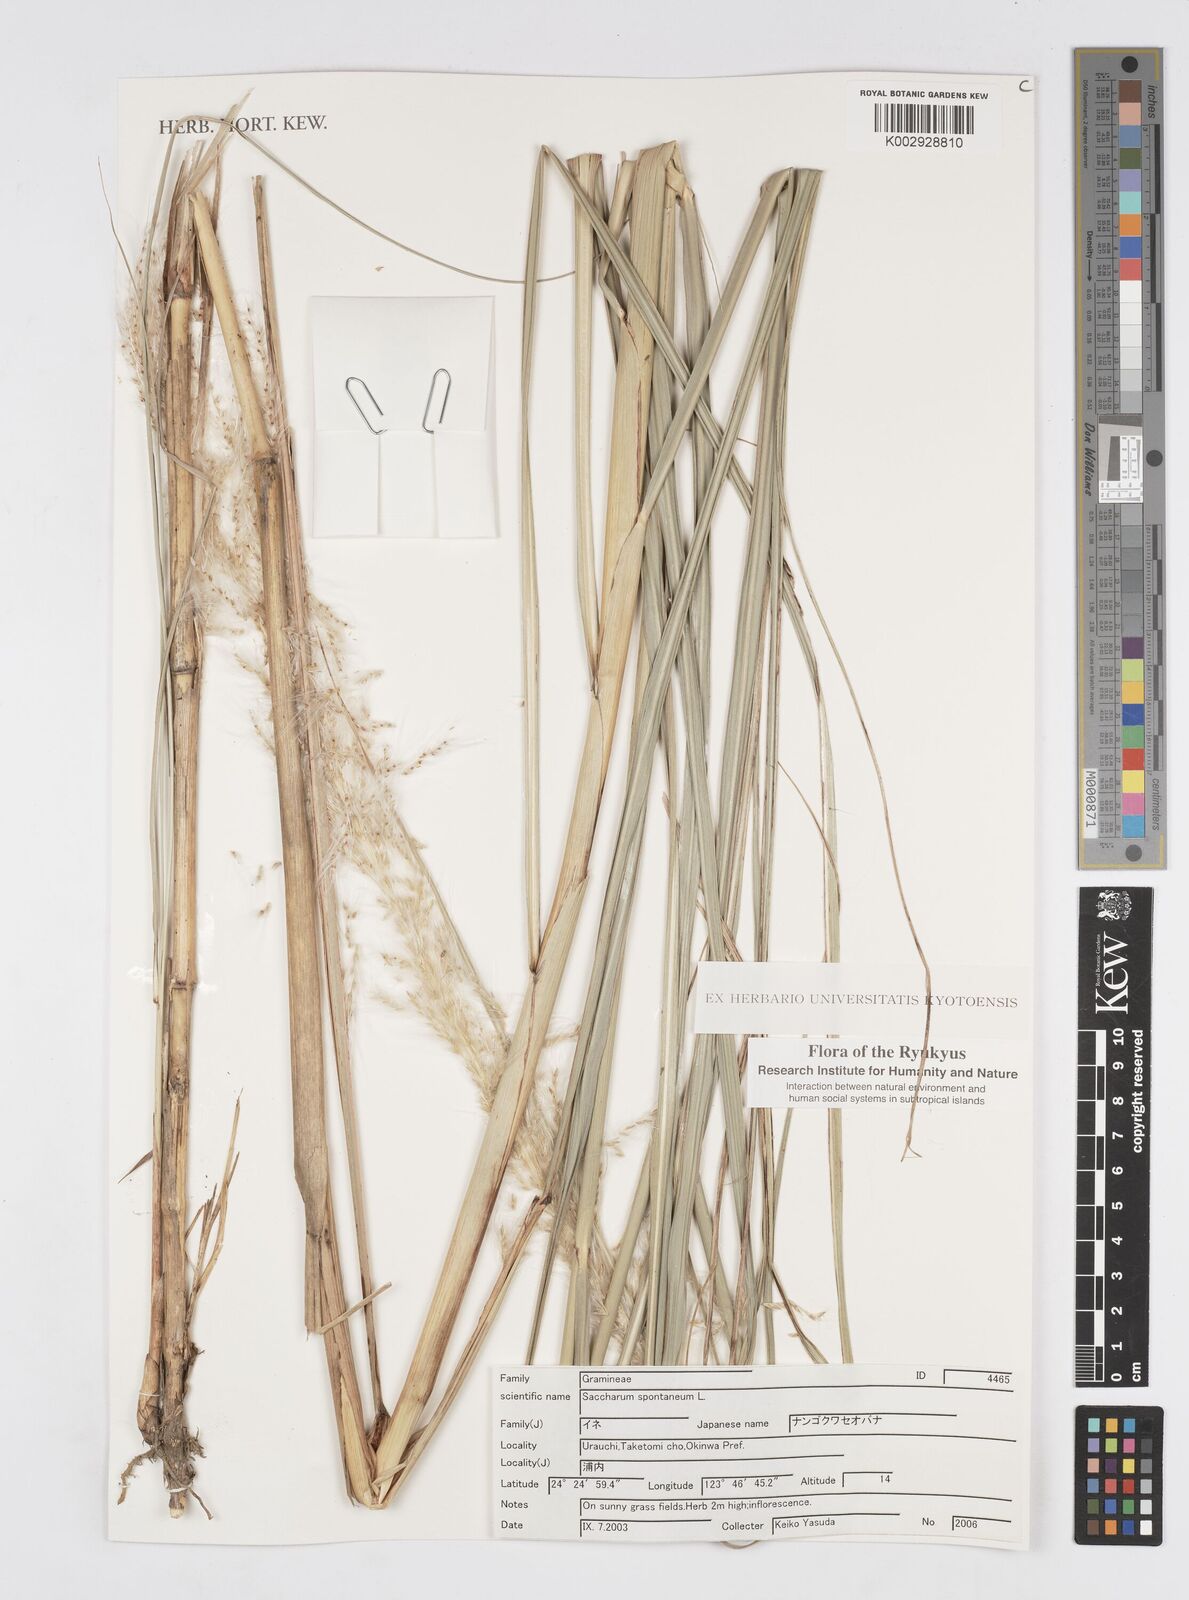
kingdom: Plantae
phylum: Tracheophyta
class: Liliopsida
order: Poales
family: Poaceae
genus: Saccharum
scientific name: Saccharum spontaneum
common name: Wild sugarcane
